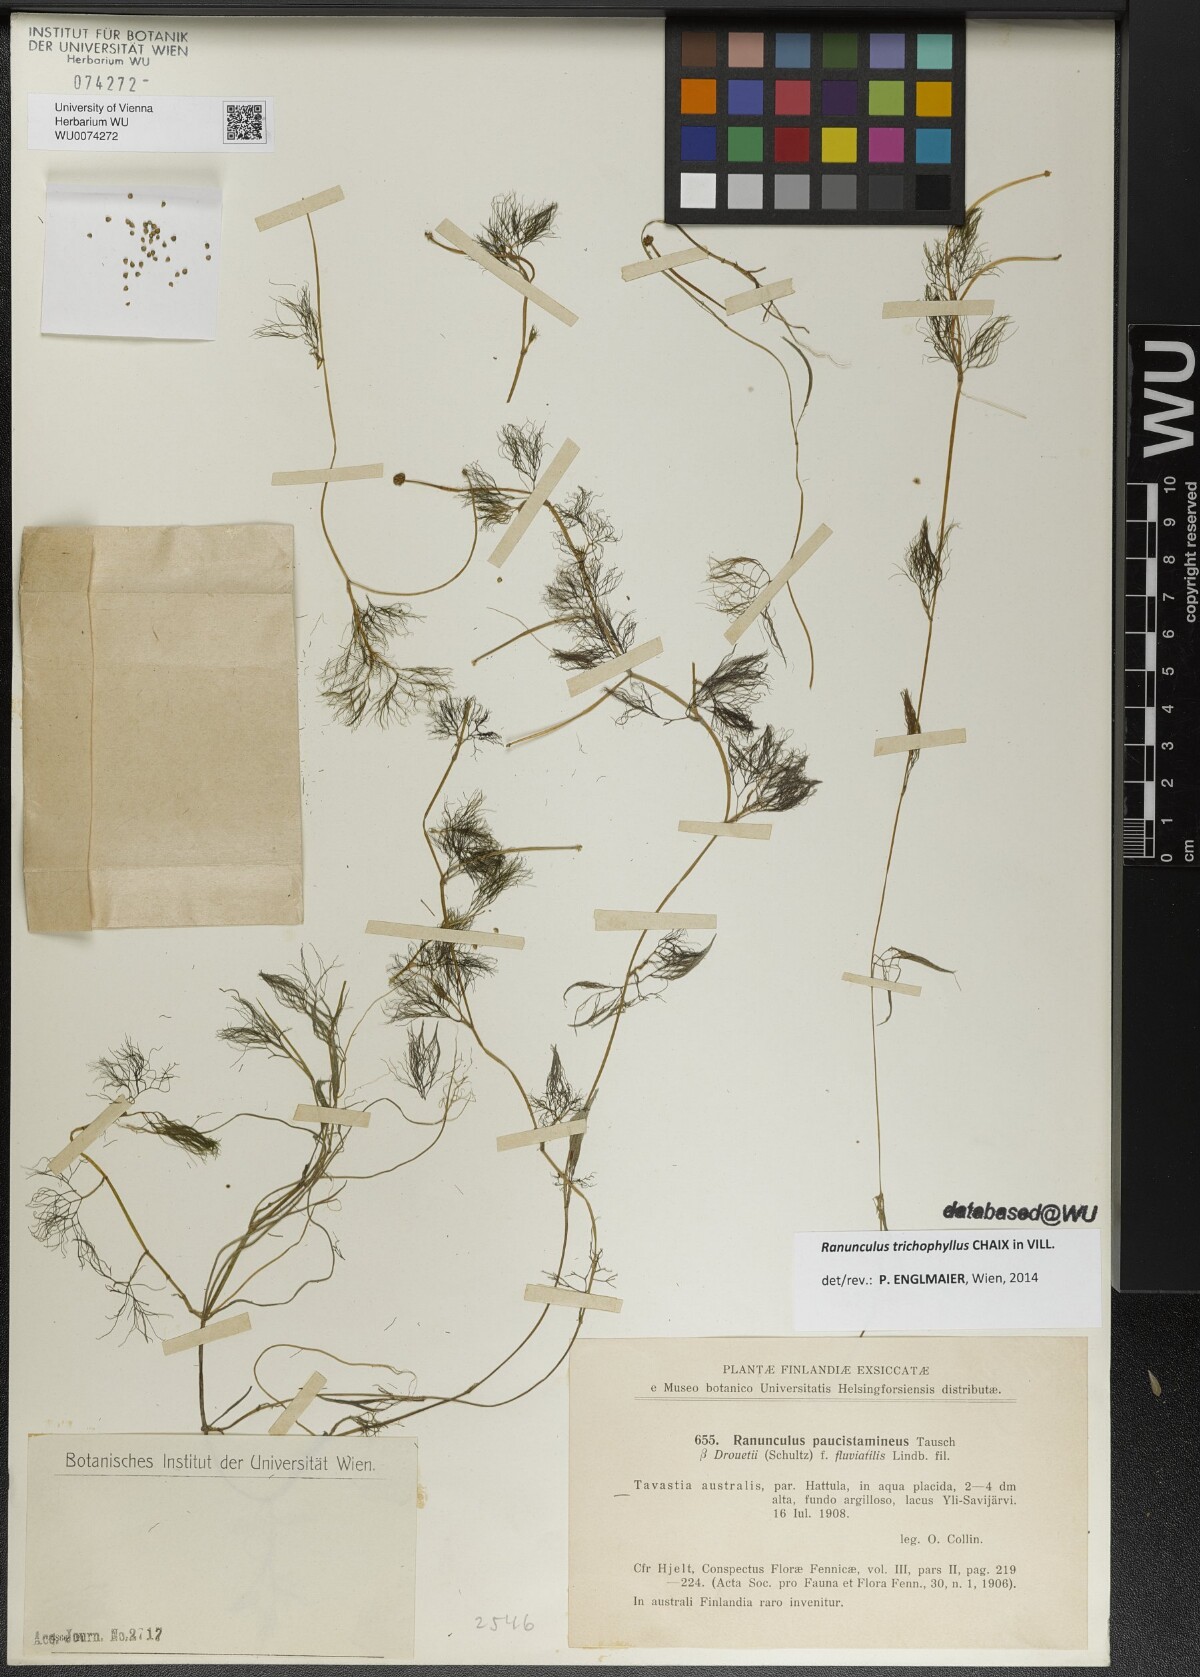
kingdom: Plantae
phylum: Tracheophyta
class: Magnoliopsida
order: Ranunculales
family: Ranunculaceae
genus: Ranunculus
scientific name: Ranunculus trichophyllus
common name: Thread-leaved water-crowfoot
